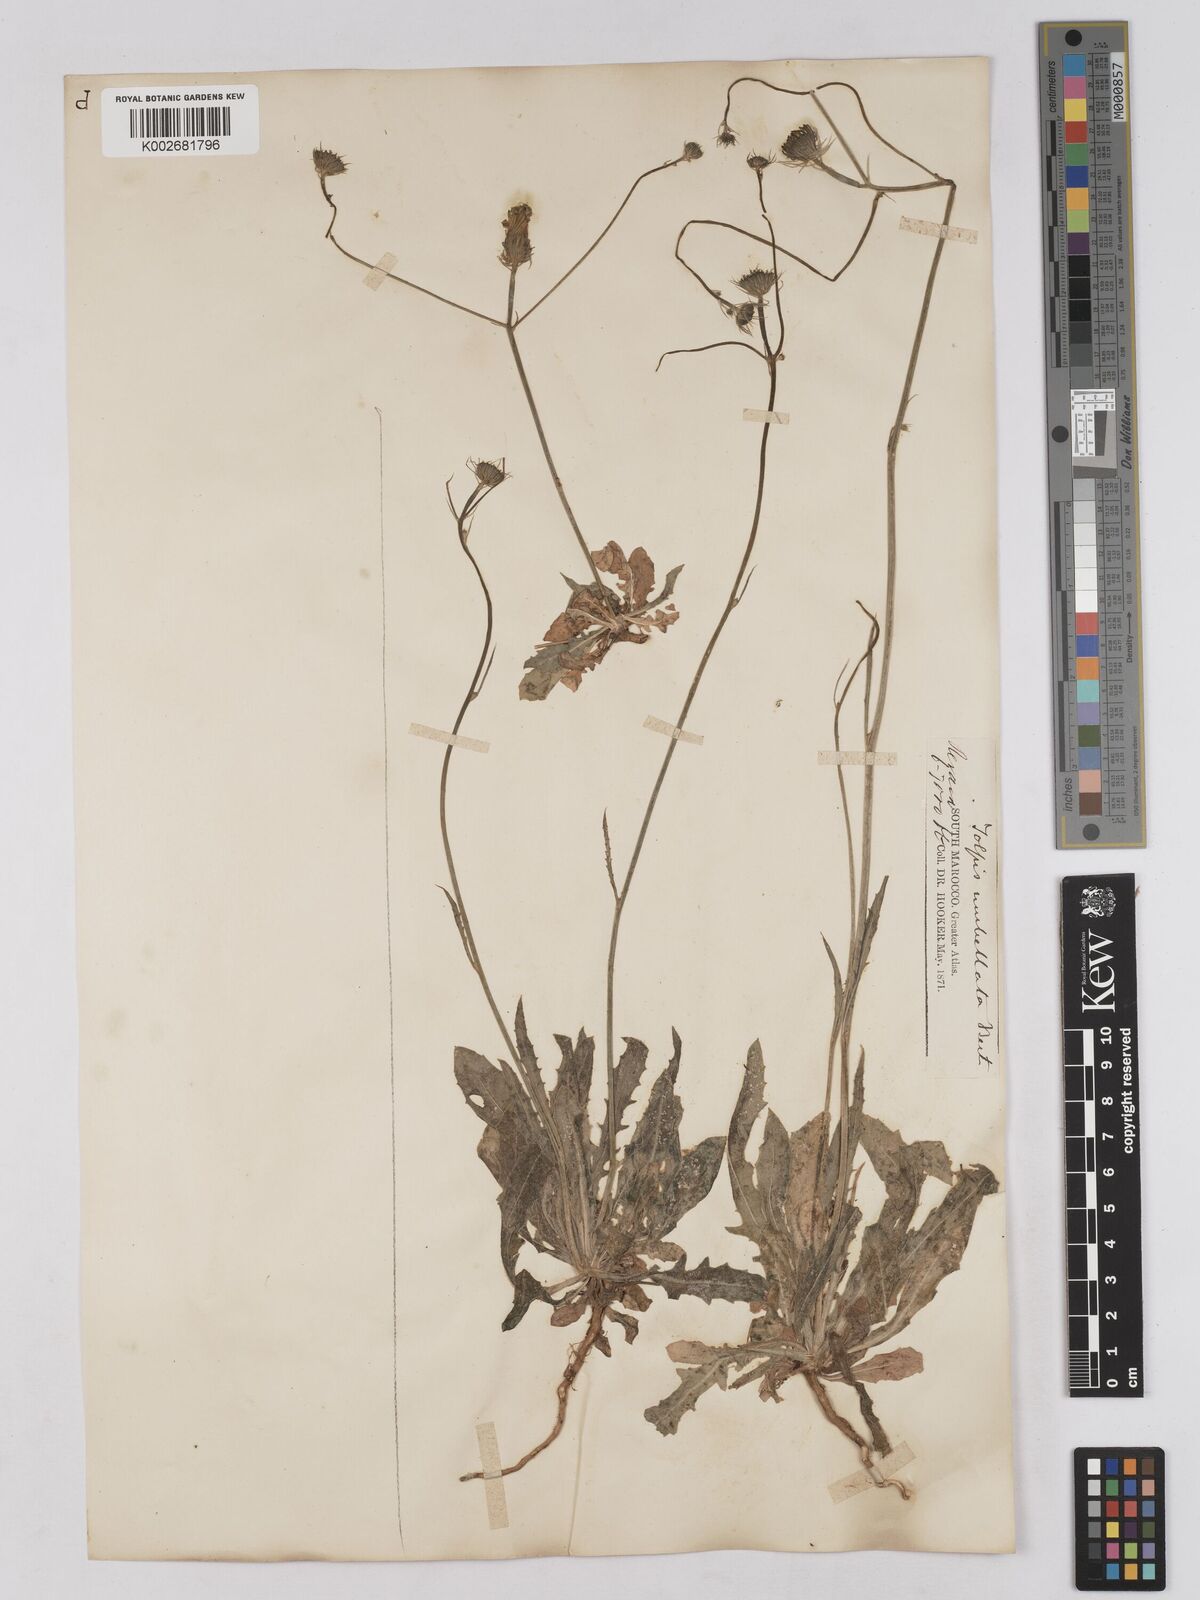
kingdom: Plantae
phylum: Tracheophyta
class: Magnoliopsida
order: Asterales
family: Asteraceae
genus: Tolpis
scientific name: Tolpis umbellata
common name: Yellow hawkweed
